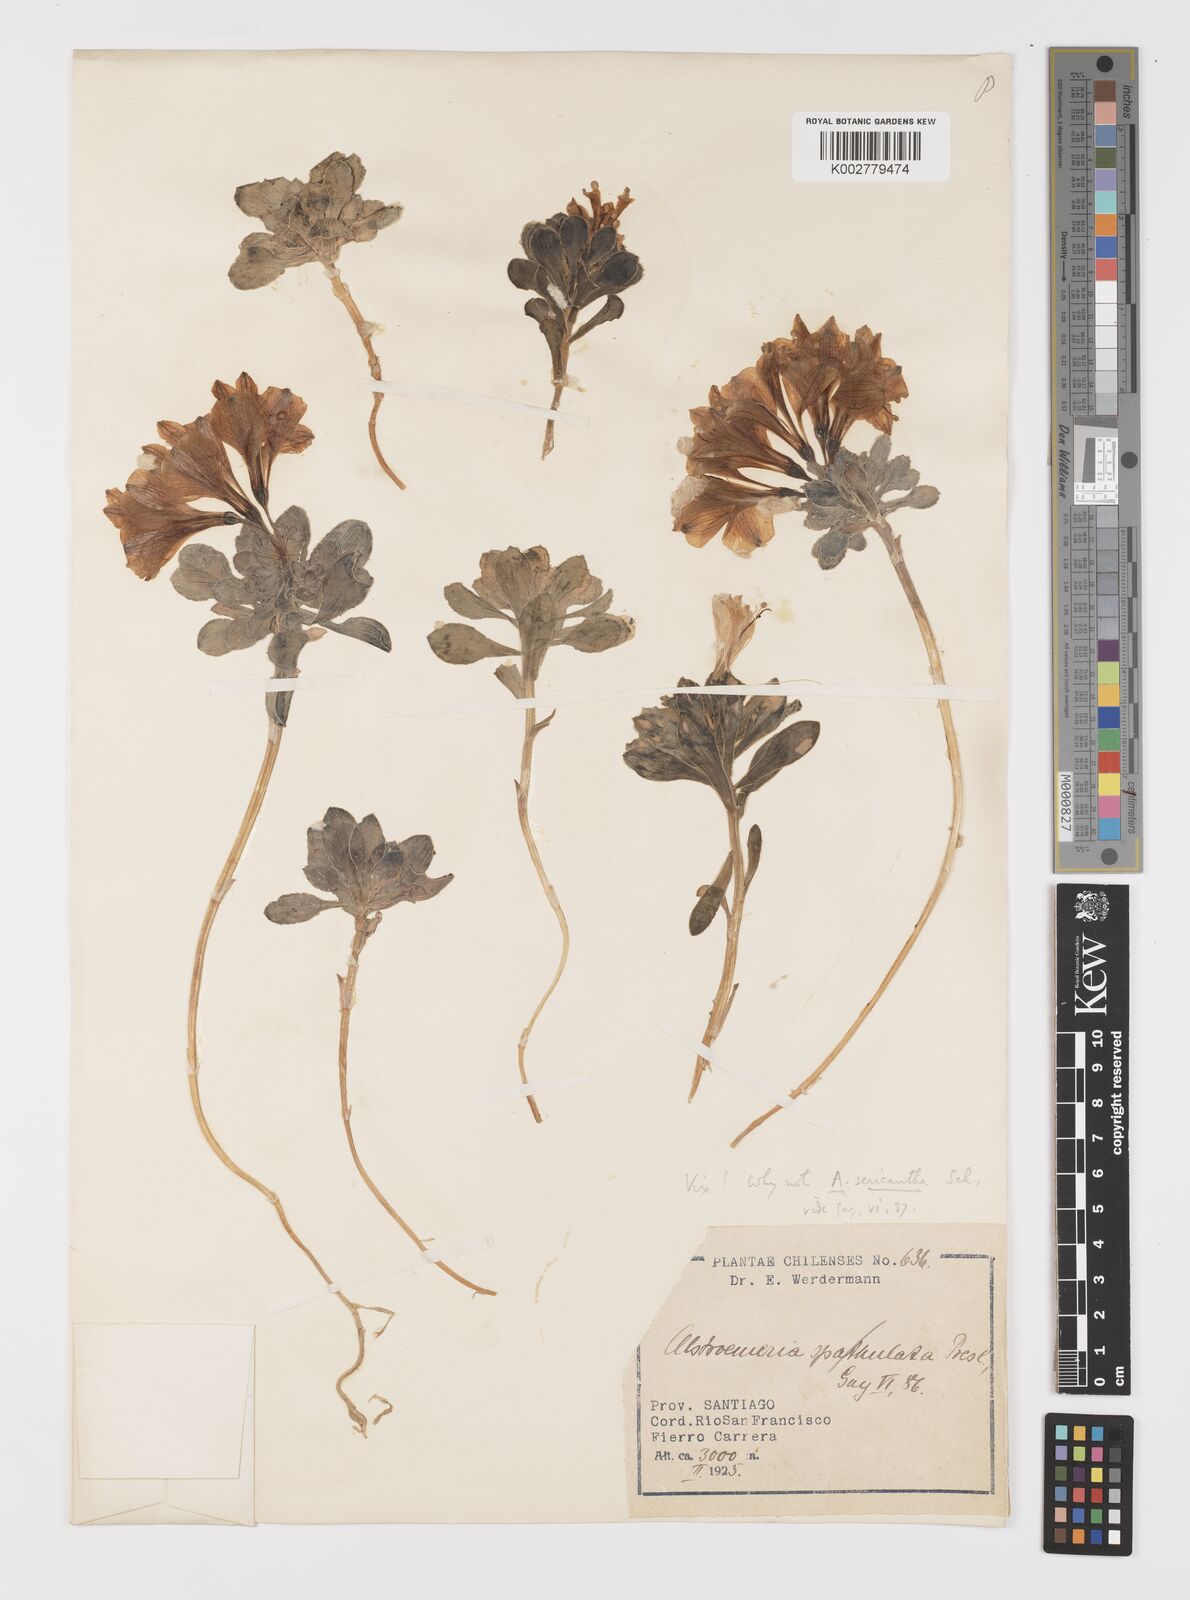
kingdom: Plantae
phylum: Tracheophyta
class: Liliopsida
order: Liliales
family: Alstroemeriaceae
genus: Alstroemeria
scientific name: Alstroemeria umbellata
